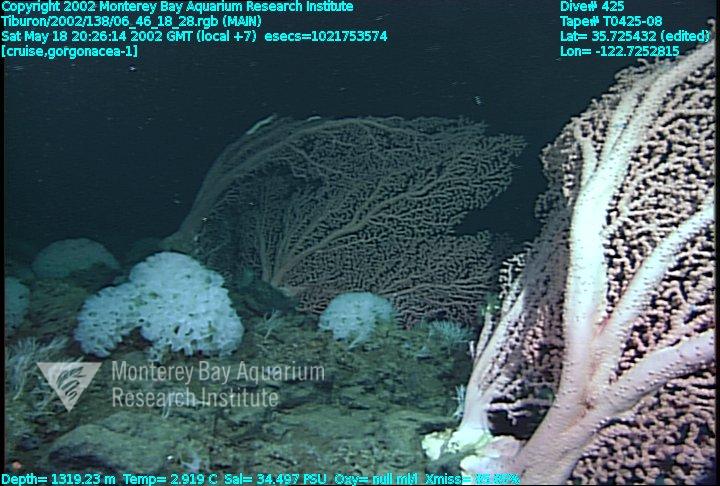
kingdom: Animalia
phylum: Porifera
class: Hexactinellida
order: Sceptrulophora
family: Farreidae
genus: Farrea
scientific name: Farrea occa
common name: Reversed glass sponge
